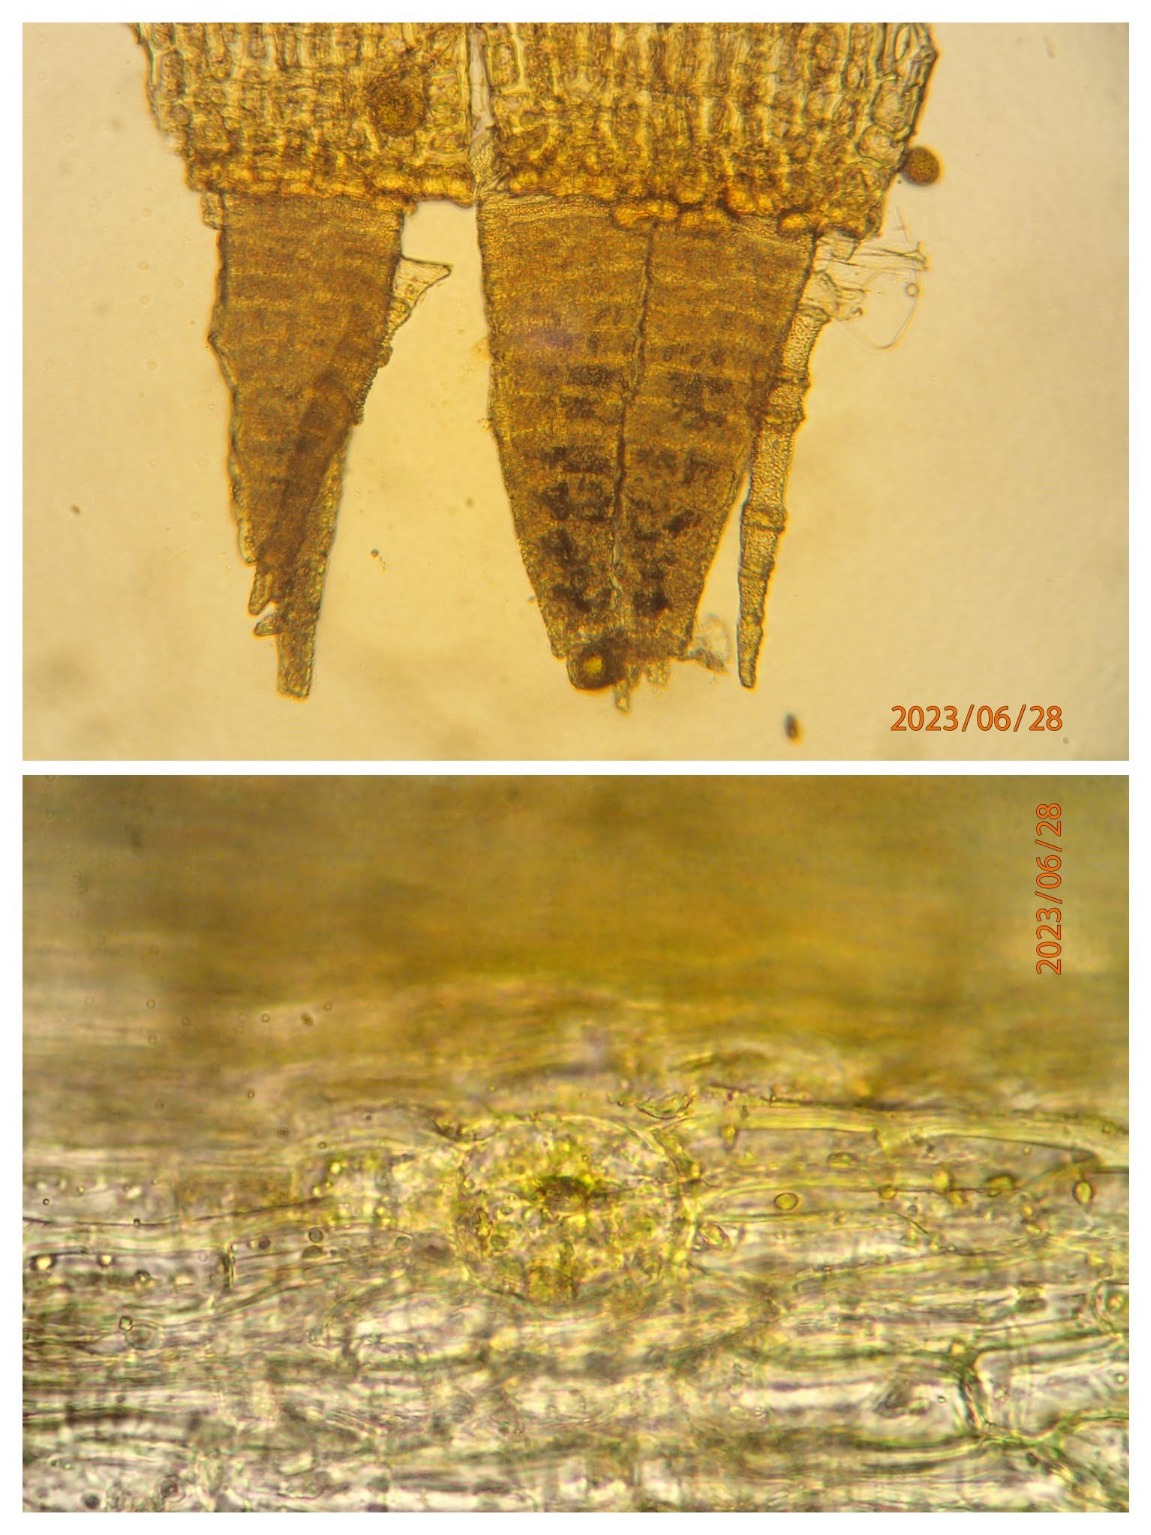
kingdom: Plantae
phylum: Bryophyta
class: Bryopsida
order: Orthotrichales
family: Orthotrichaceae
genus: Lewinskya
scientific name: Lewinskya speciosa
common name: Kortstribet furehætte
